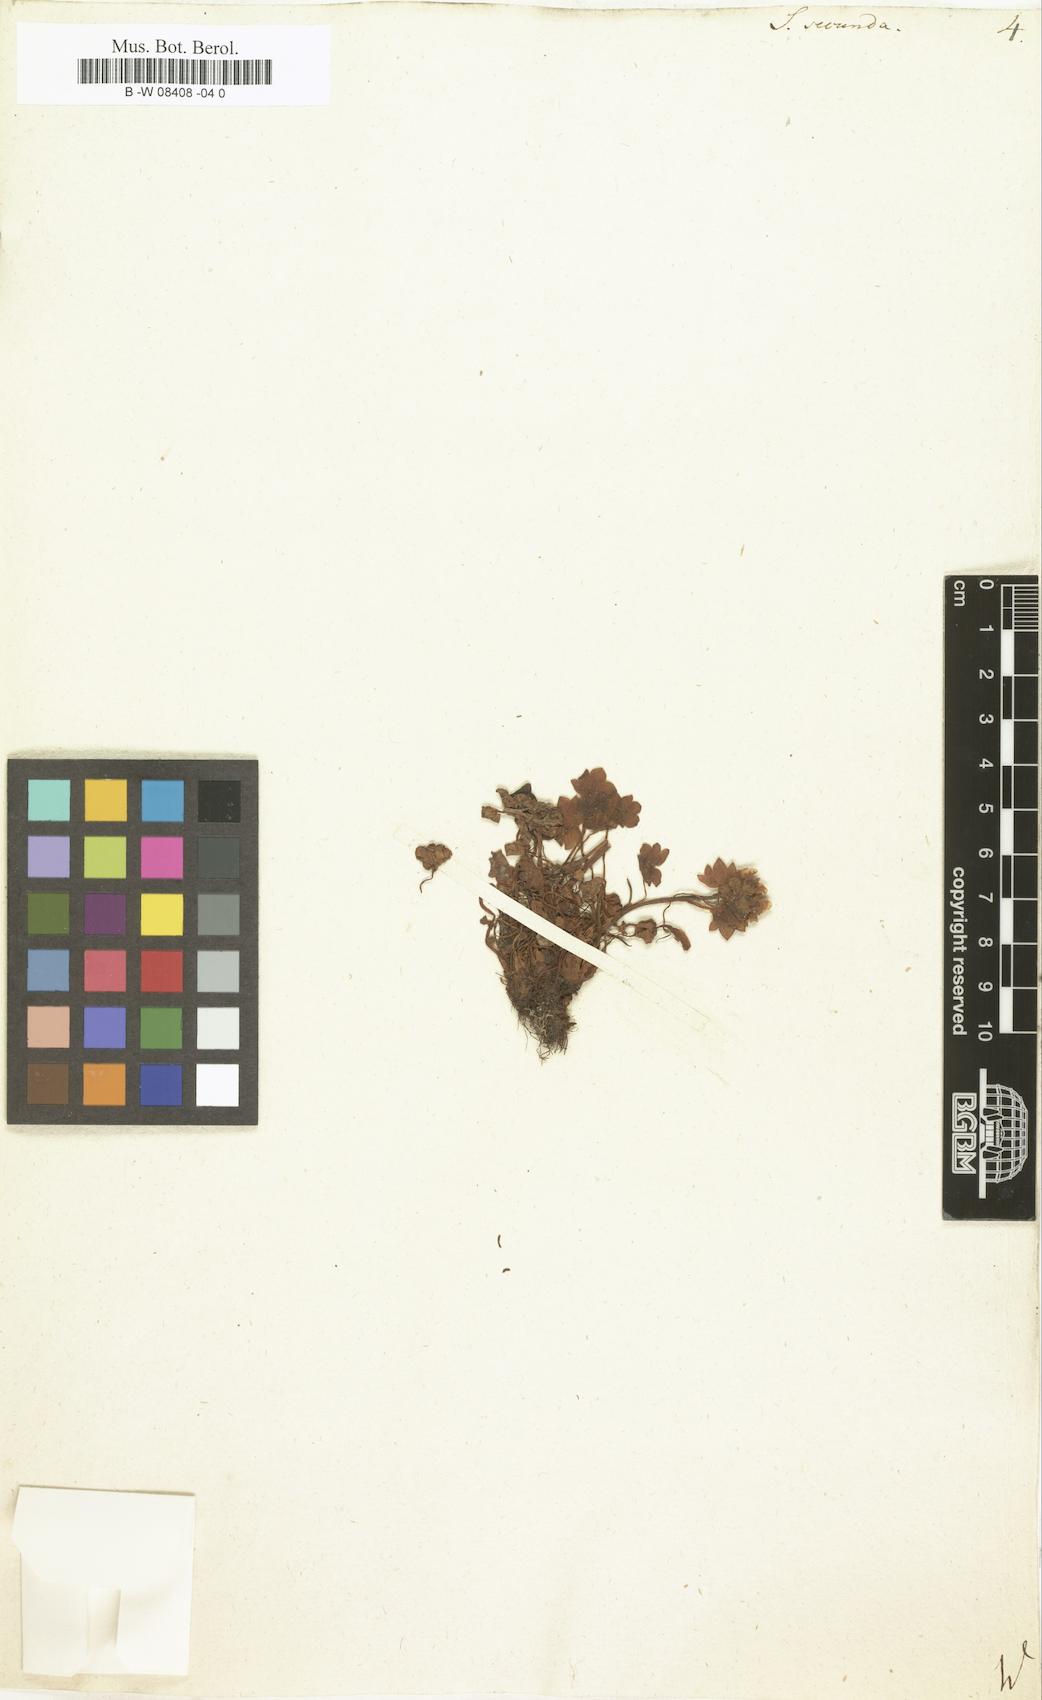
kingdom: Plantae
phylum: Tracheophyta
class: Magnoliopsida
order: Saxifragales
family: Saxifragaceae
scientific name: Saxifragaceae
